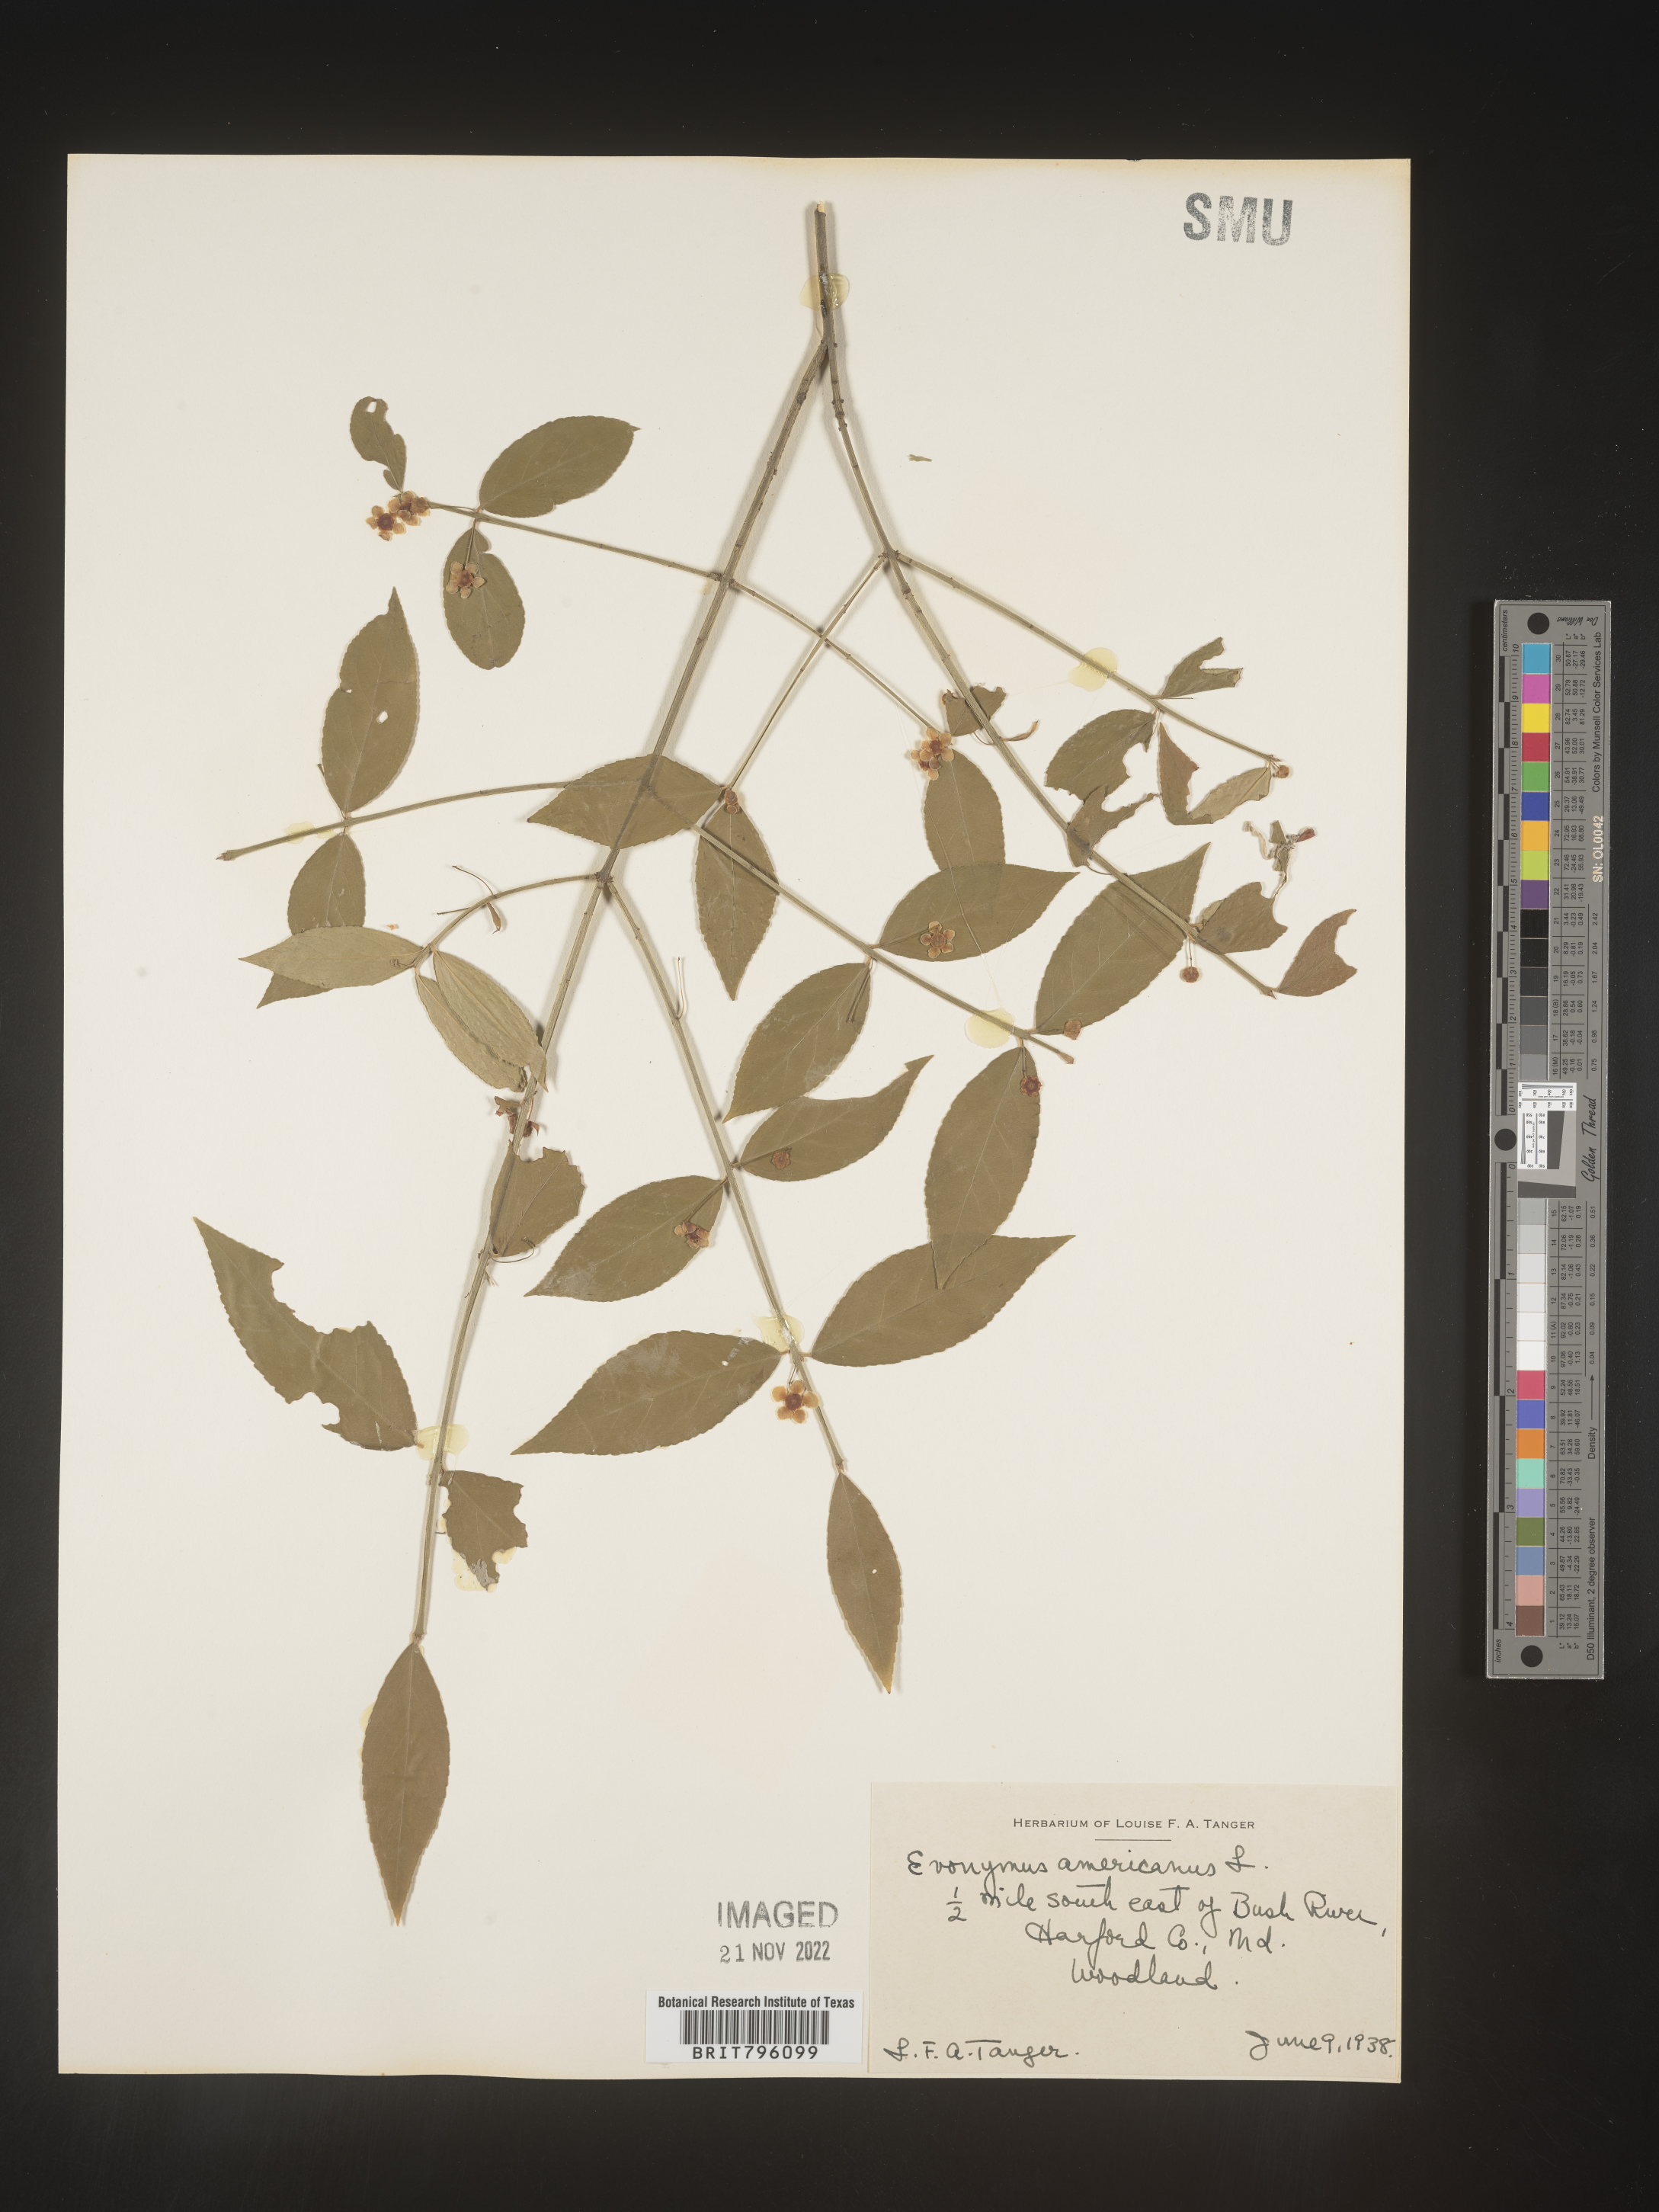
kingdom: Plantae
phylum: Tracheophyta
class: Magnoliopsida
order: Celastrales
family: Celastraceae
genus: Euonymus
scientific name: Euonymus americanus
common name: Bursting-heart
